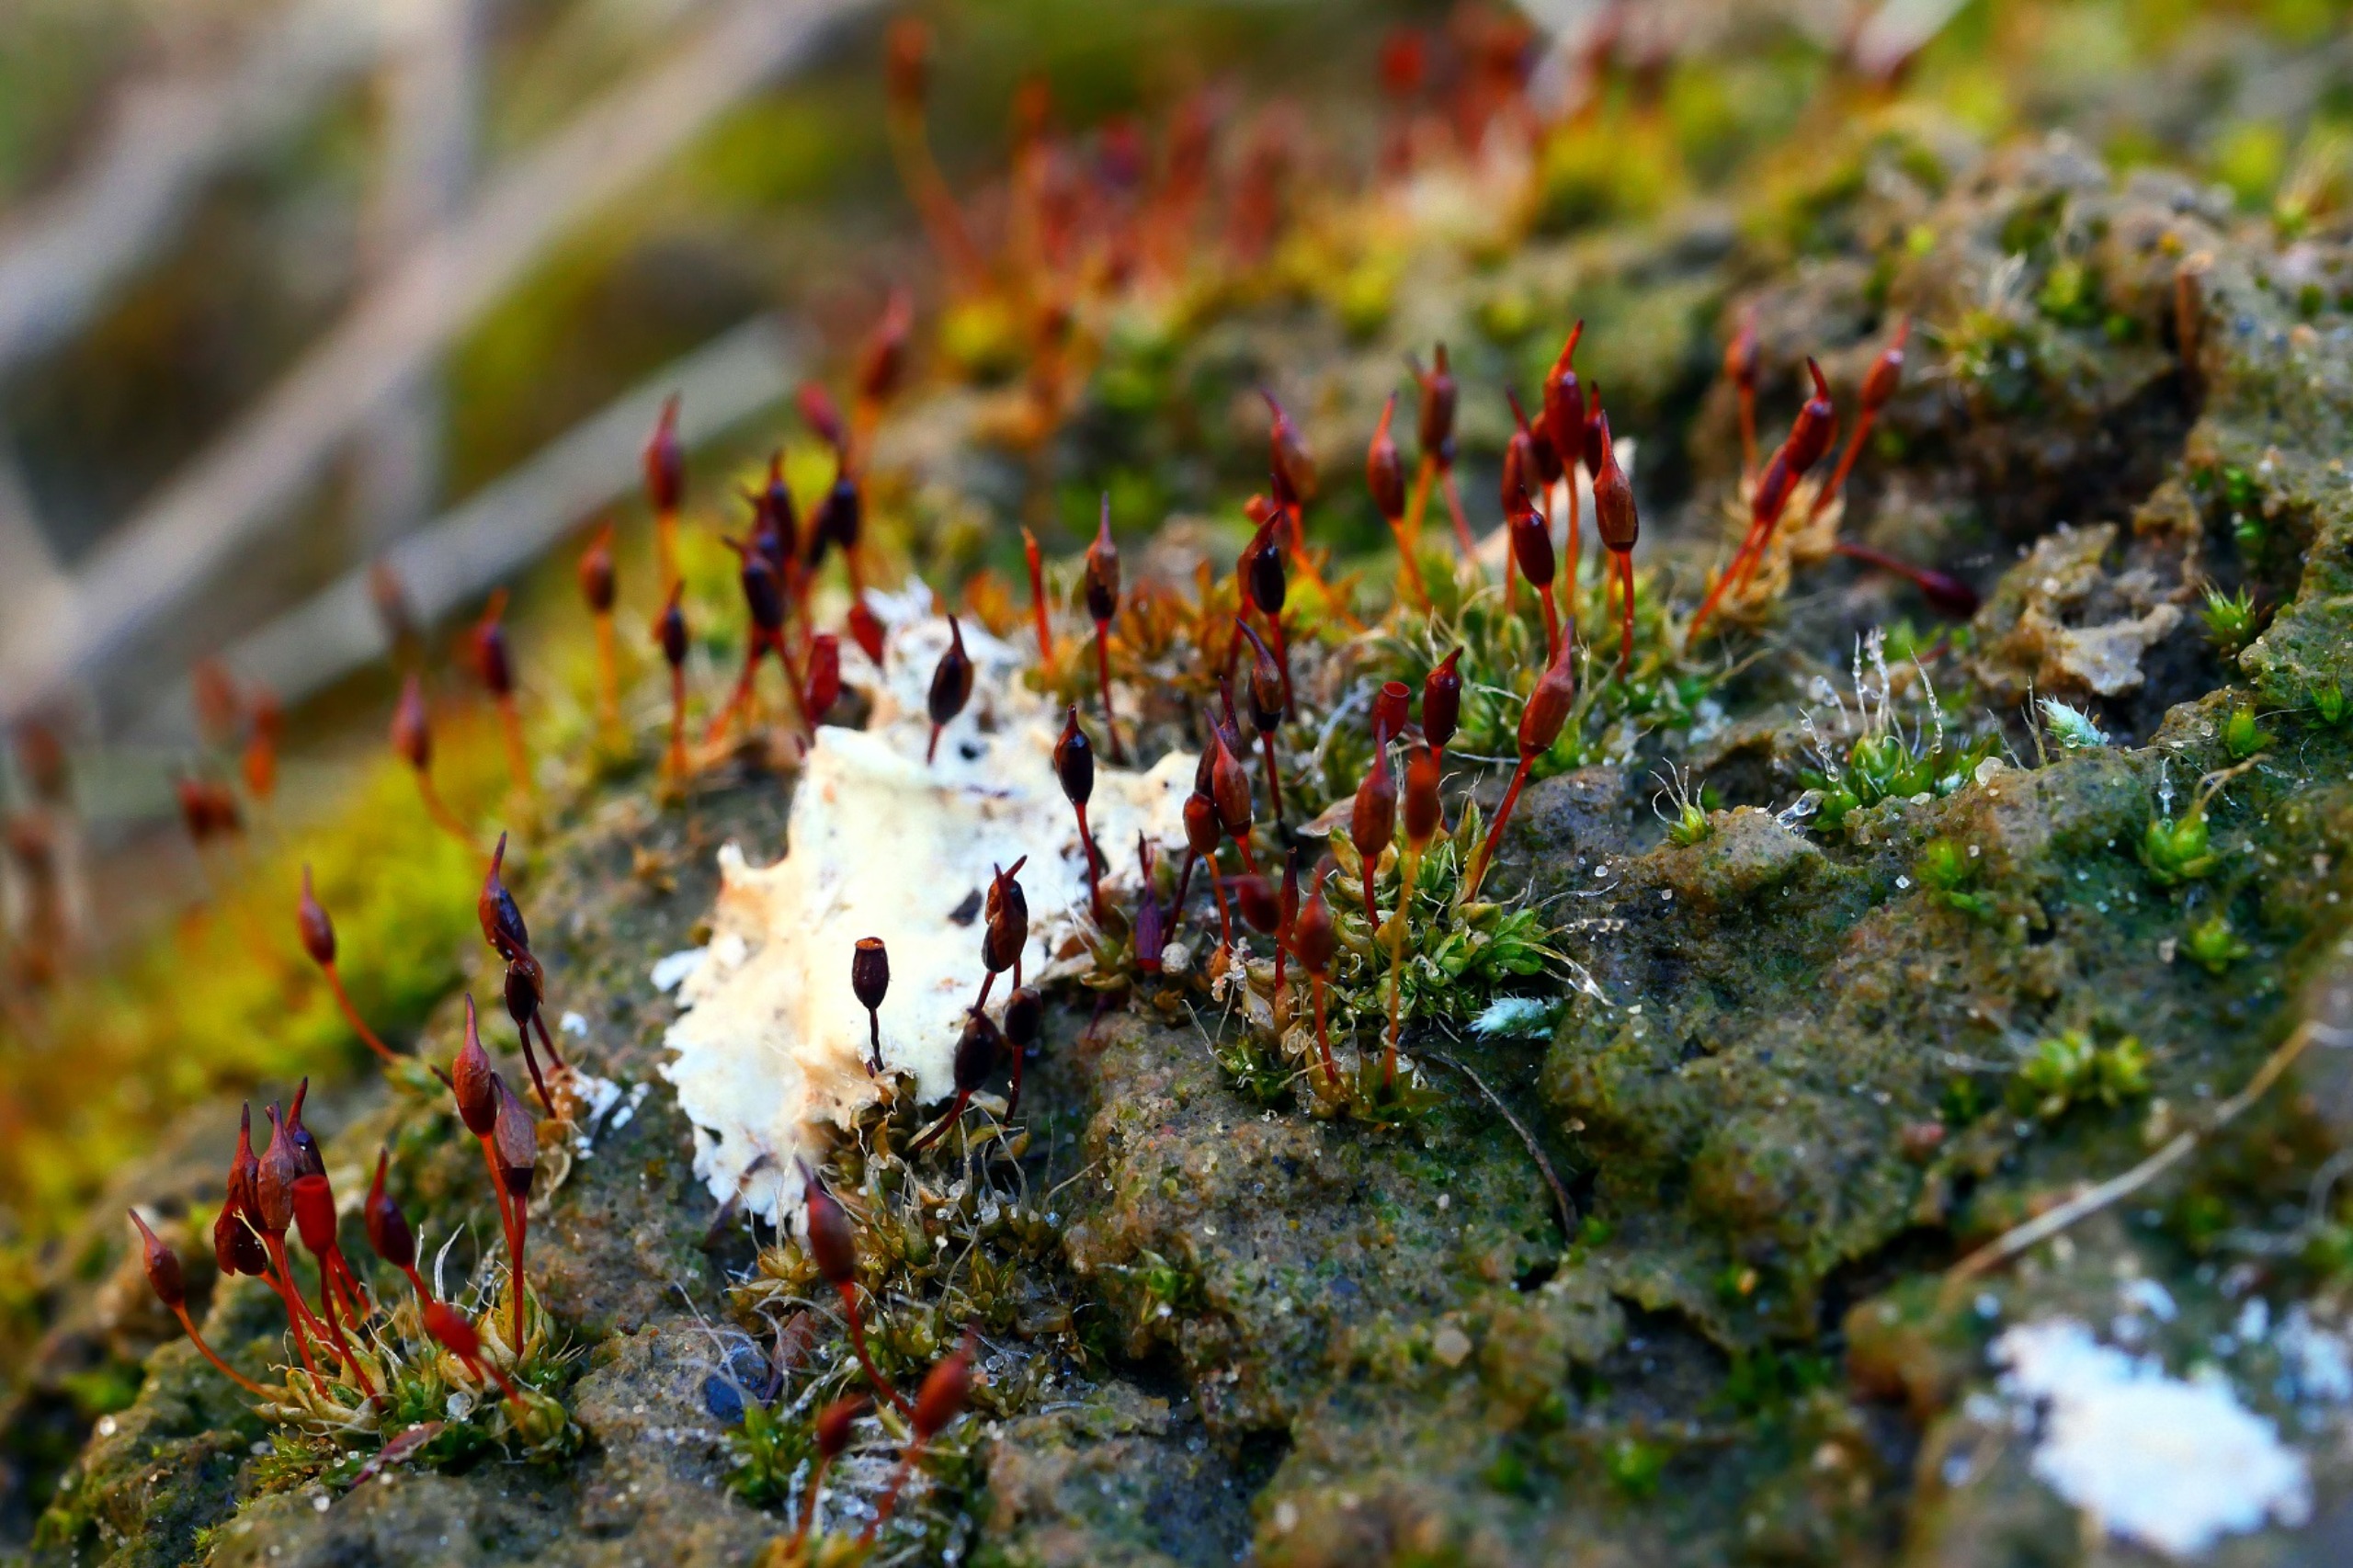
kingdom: Plantae
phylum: Bryophyta
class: Bryopsida
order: Pottiales
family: Pottiaceae
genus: Pterygoneurum
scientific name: Pterygoneurum ovatum
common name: Langhåret vingenerve
